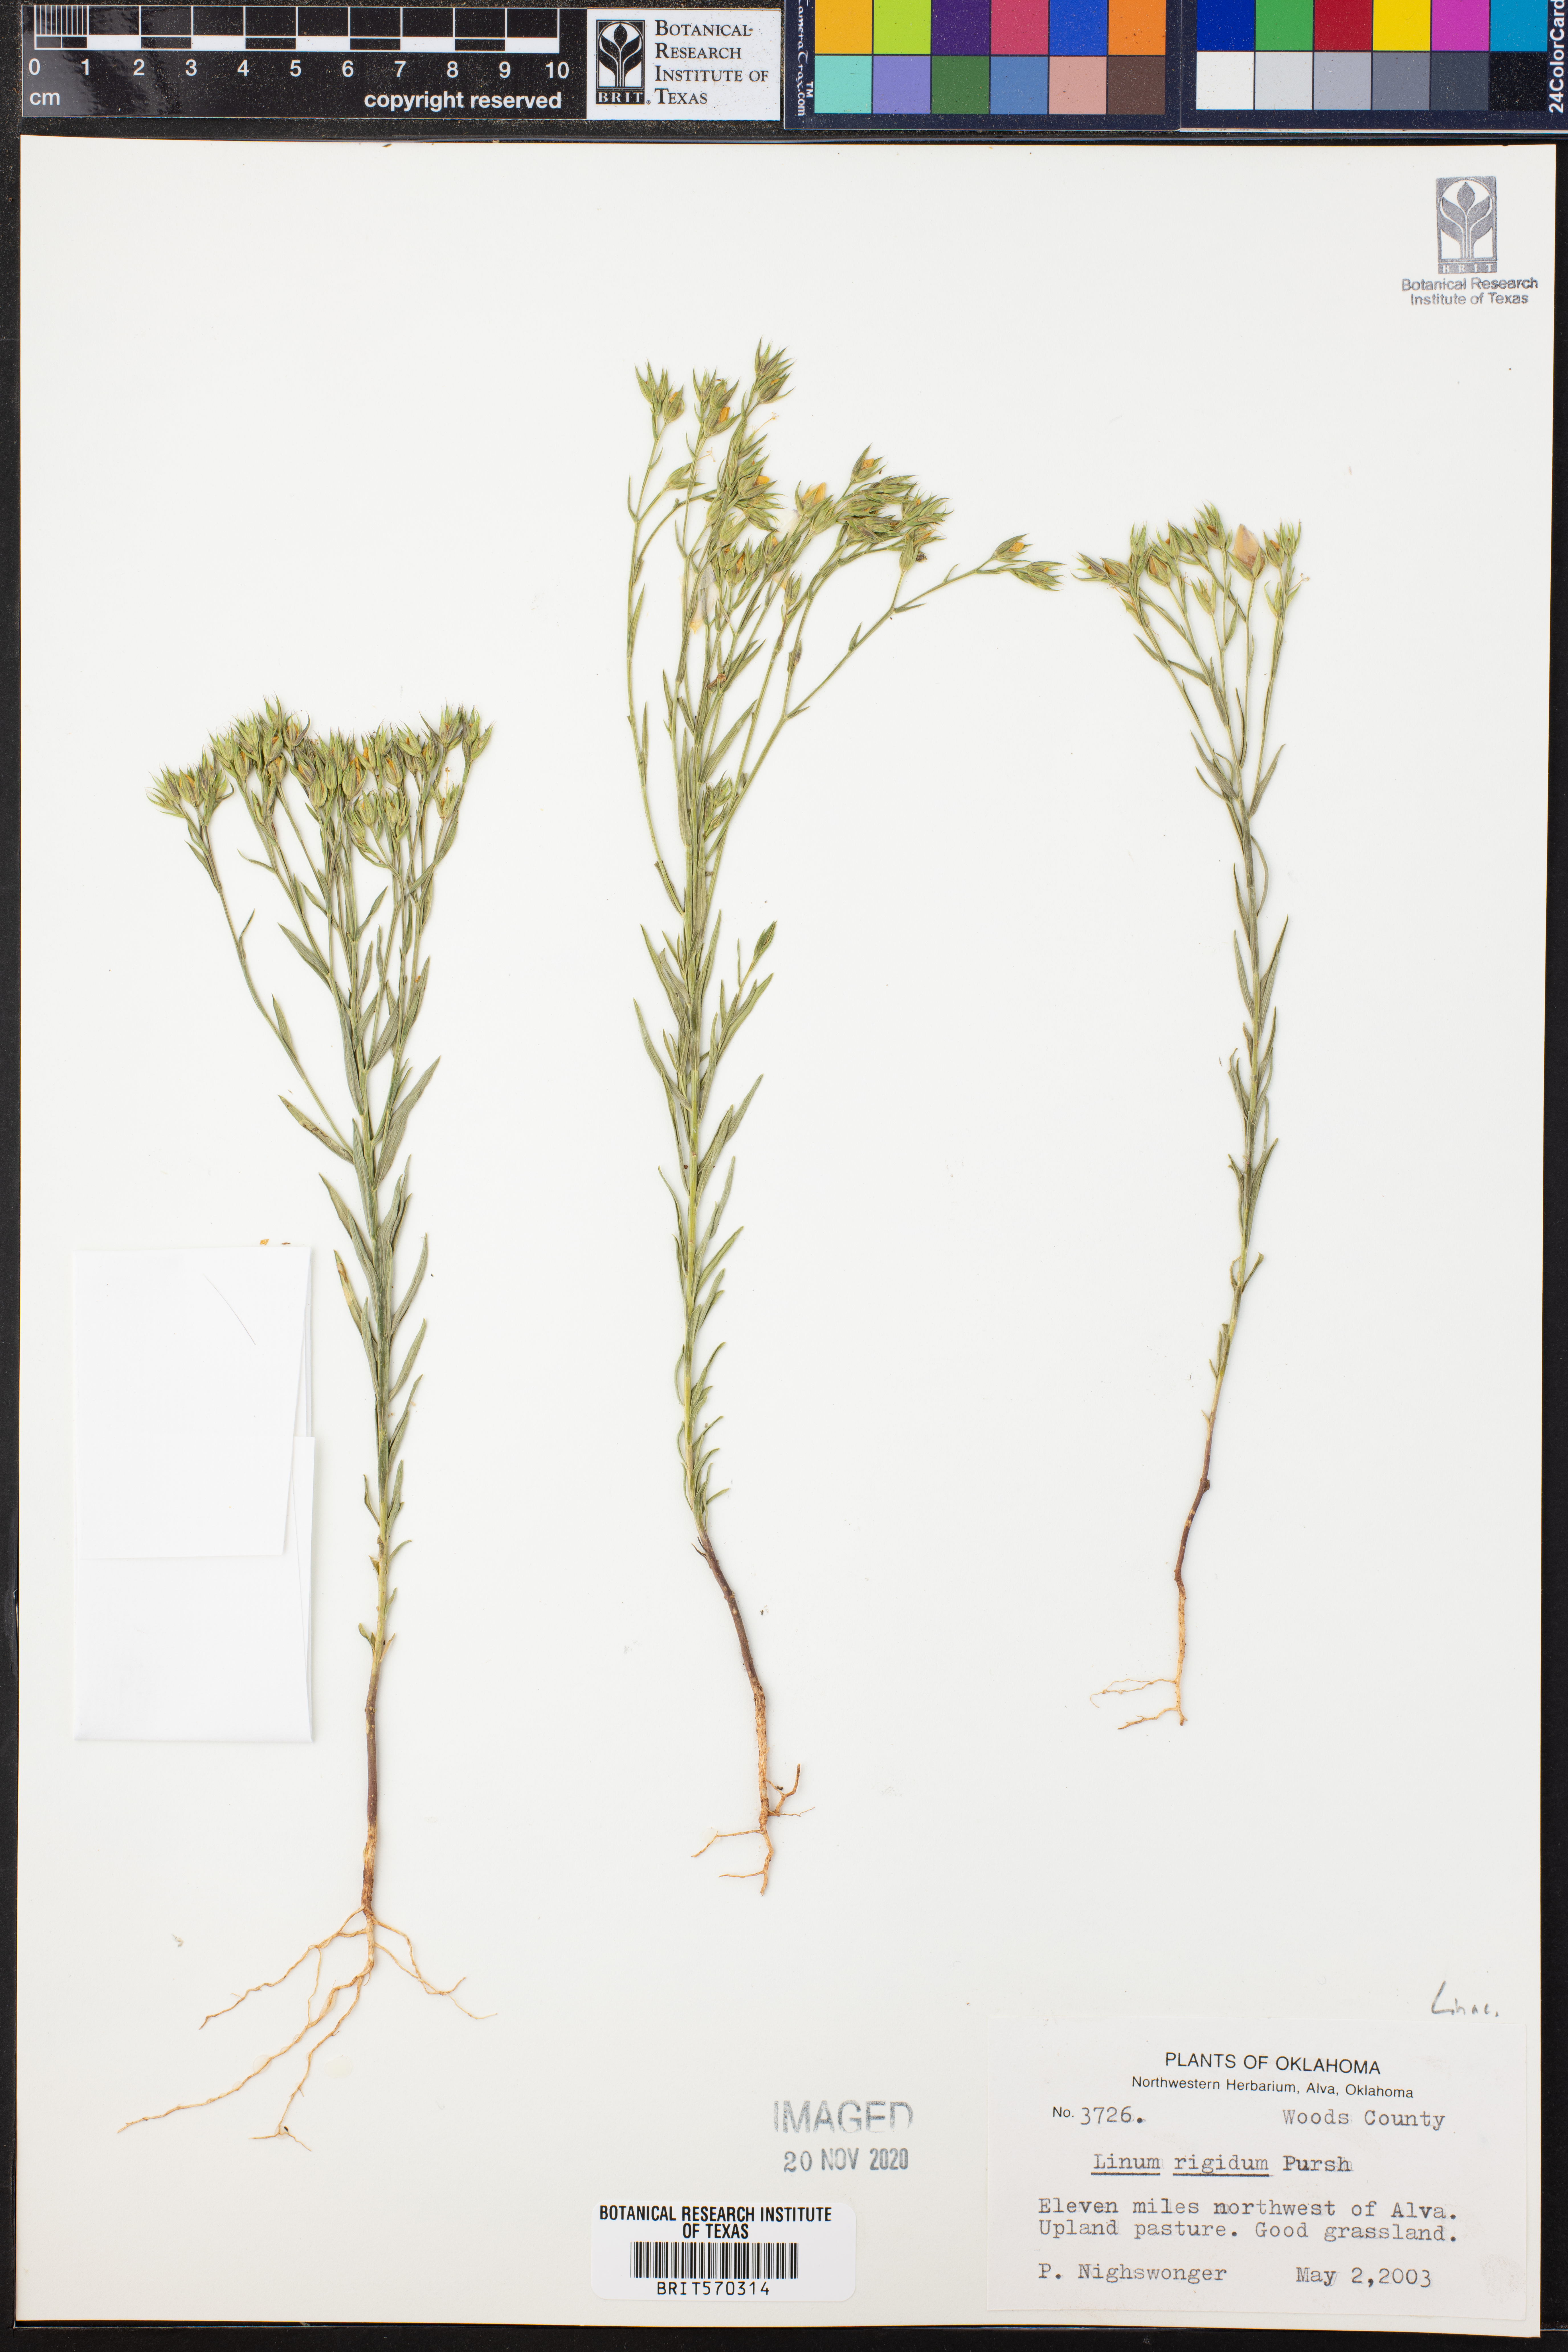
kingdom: Plantae
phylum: Tracheophyta
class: Magnoliopsida
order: Malpighiales
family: Linaceae
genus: Linum
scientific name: Linum rigidum
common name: Stiff-stem flax
